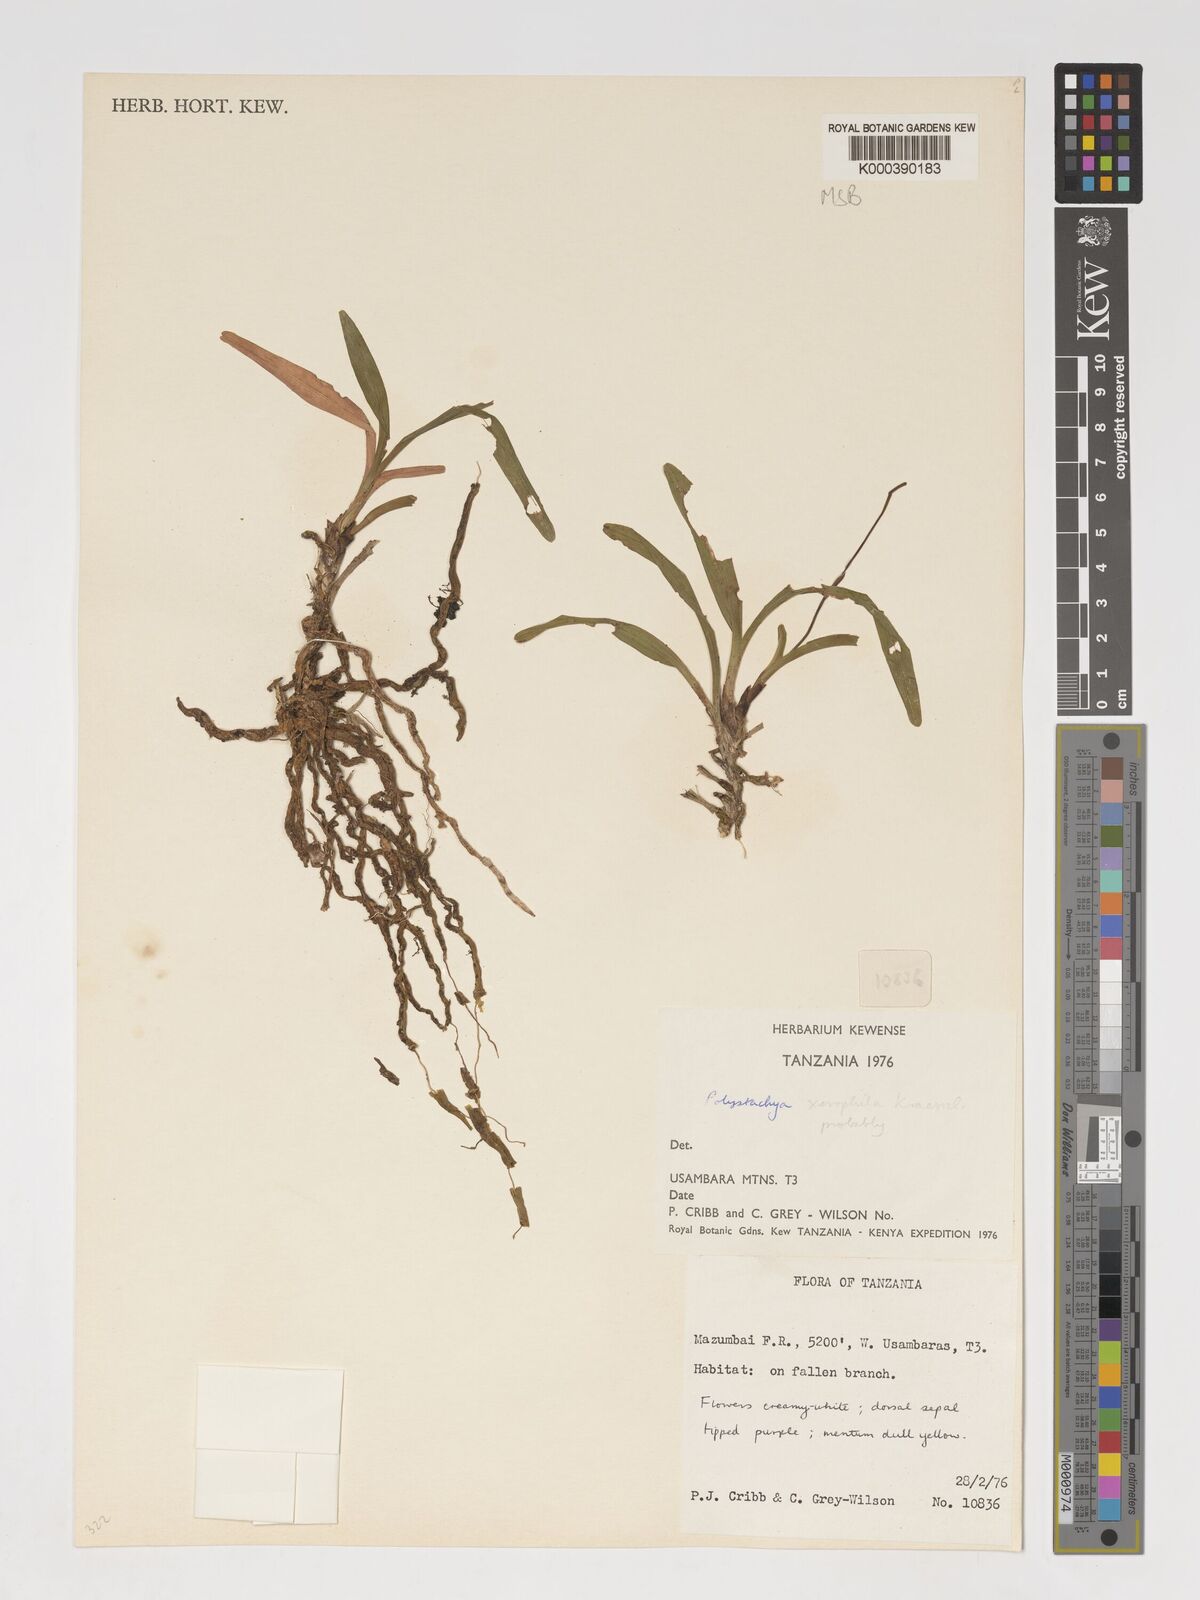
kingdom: Plantae
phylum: Tracheophyta
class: Liliopsida
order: Asparagales
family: Orchidaceae
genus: Polystachya
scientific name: Polystachya xerophila
